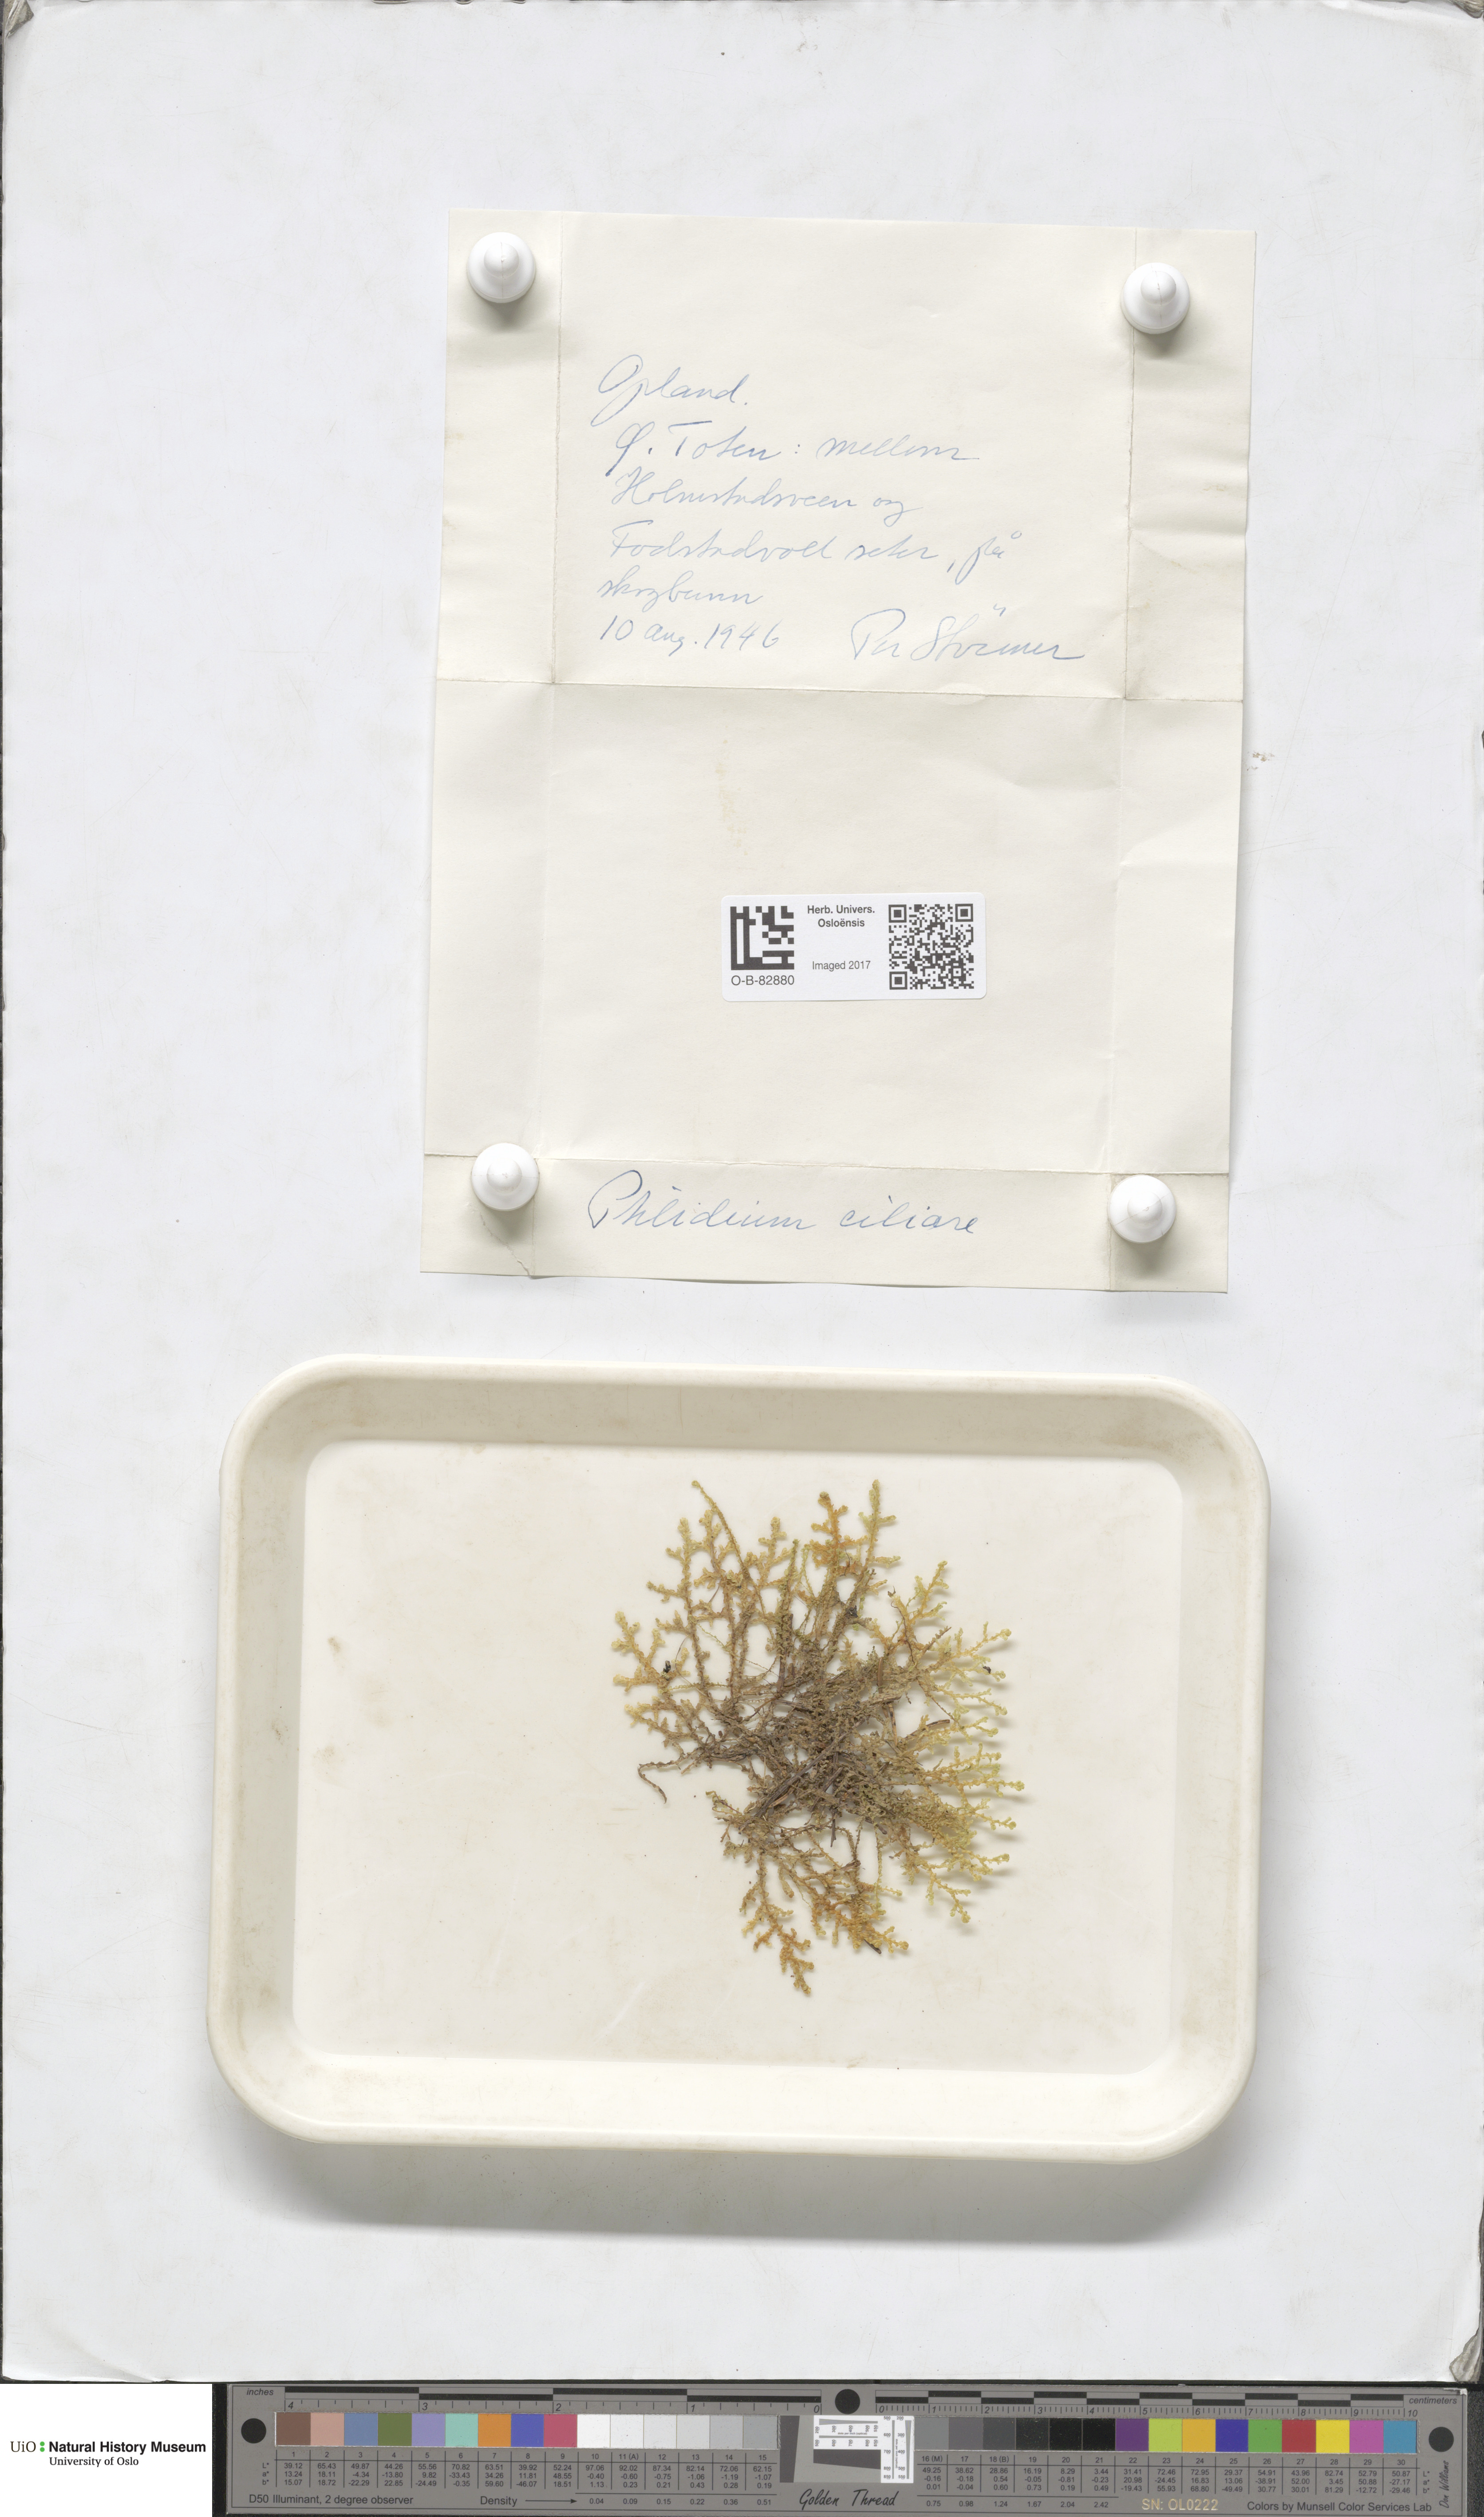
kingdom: Plantae
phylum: Marchantiophyta
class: Jungermanniopsida
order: Ptilidiales
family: Ptilidiaceae
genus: Ptilidium
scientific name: Ptilidium ciliare
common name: Ciliate fringewort
